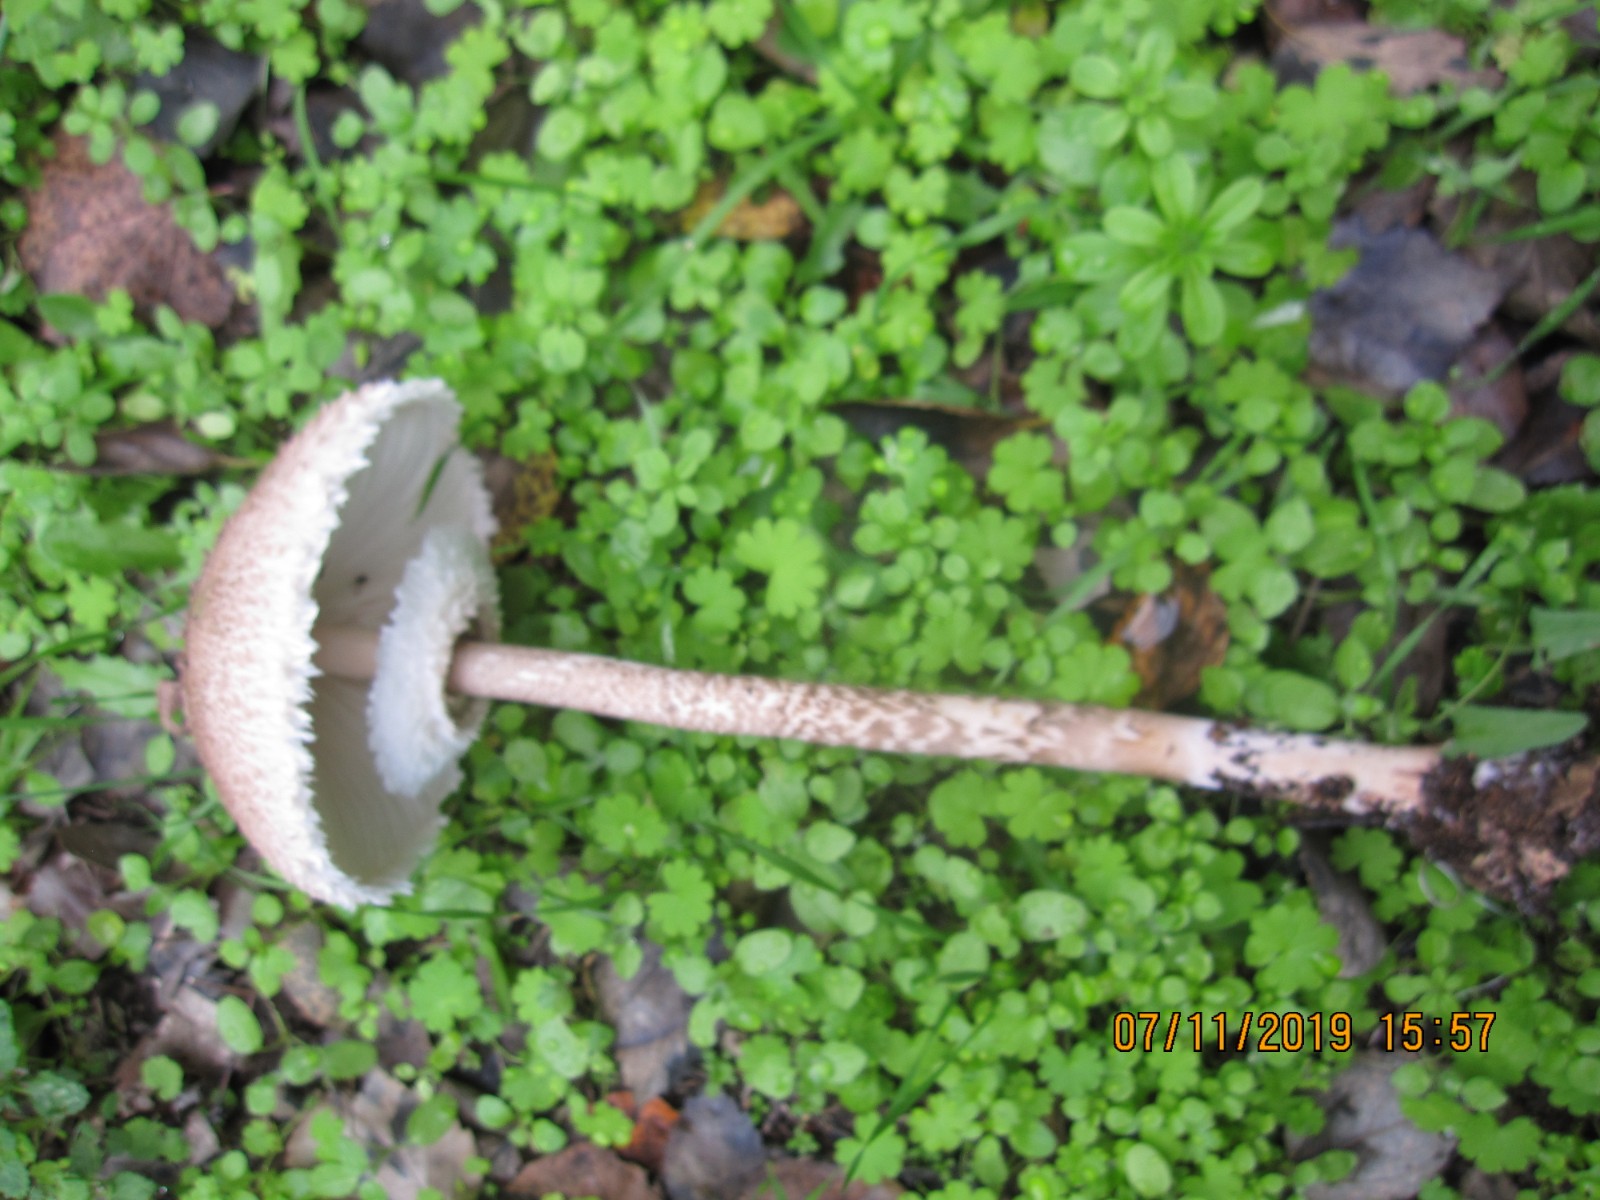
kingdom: Fungi
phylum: Basidiomycota
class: Agaricomycetes
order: Agaricales
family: Agaricaceae
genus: Macrolepiota
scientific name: Macrolepiota
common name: kæmpeparasolhat
